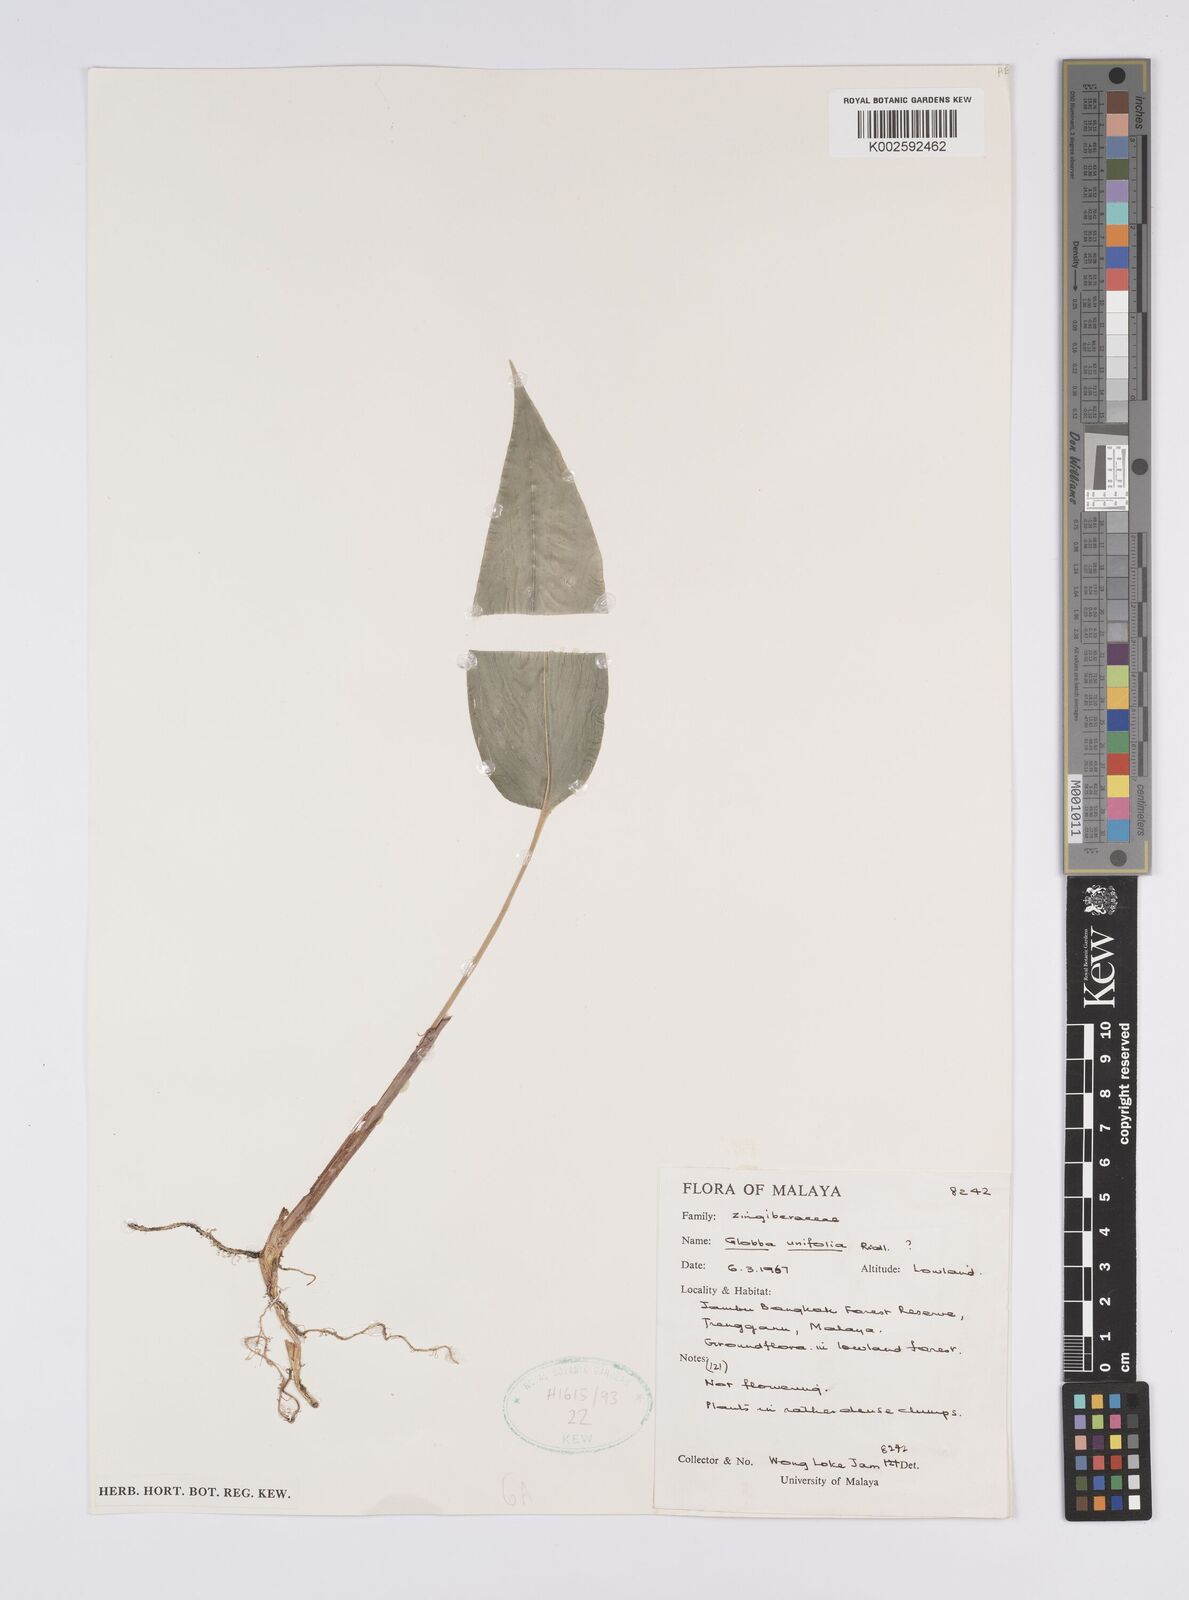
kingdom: Plantae
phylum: Tracheophyta
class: Liliopsida
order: Zingiberales
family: Zingiberaceae
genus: Globba
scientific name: Globba unifolia
